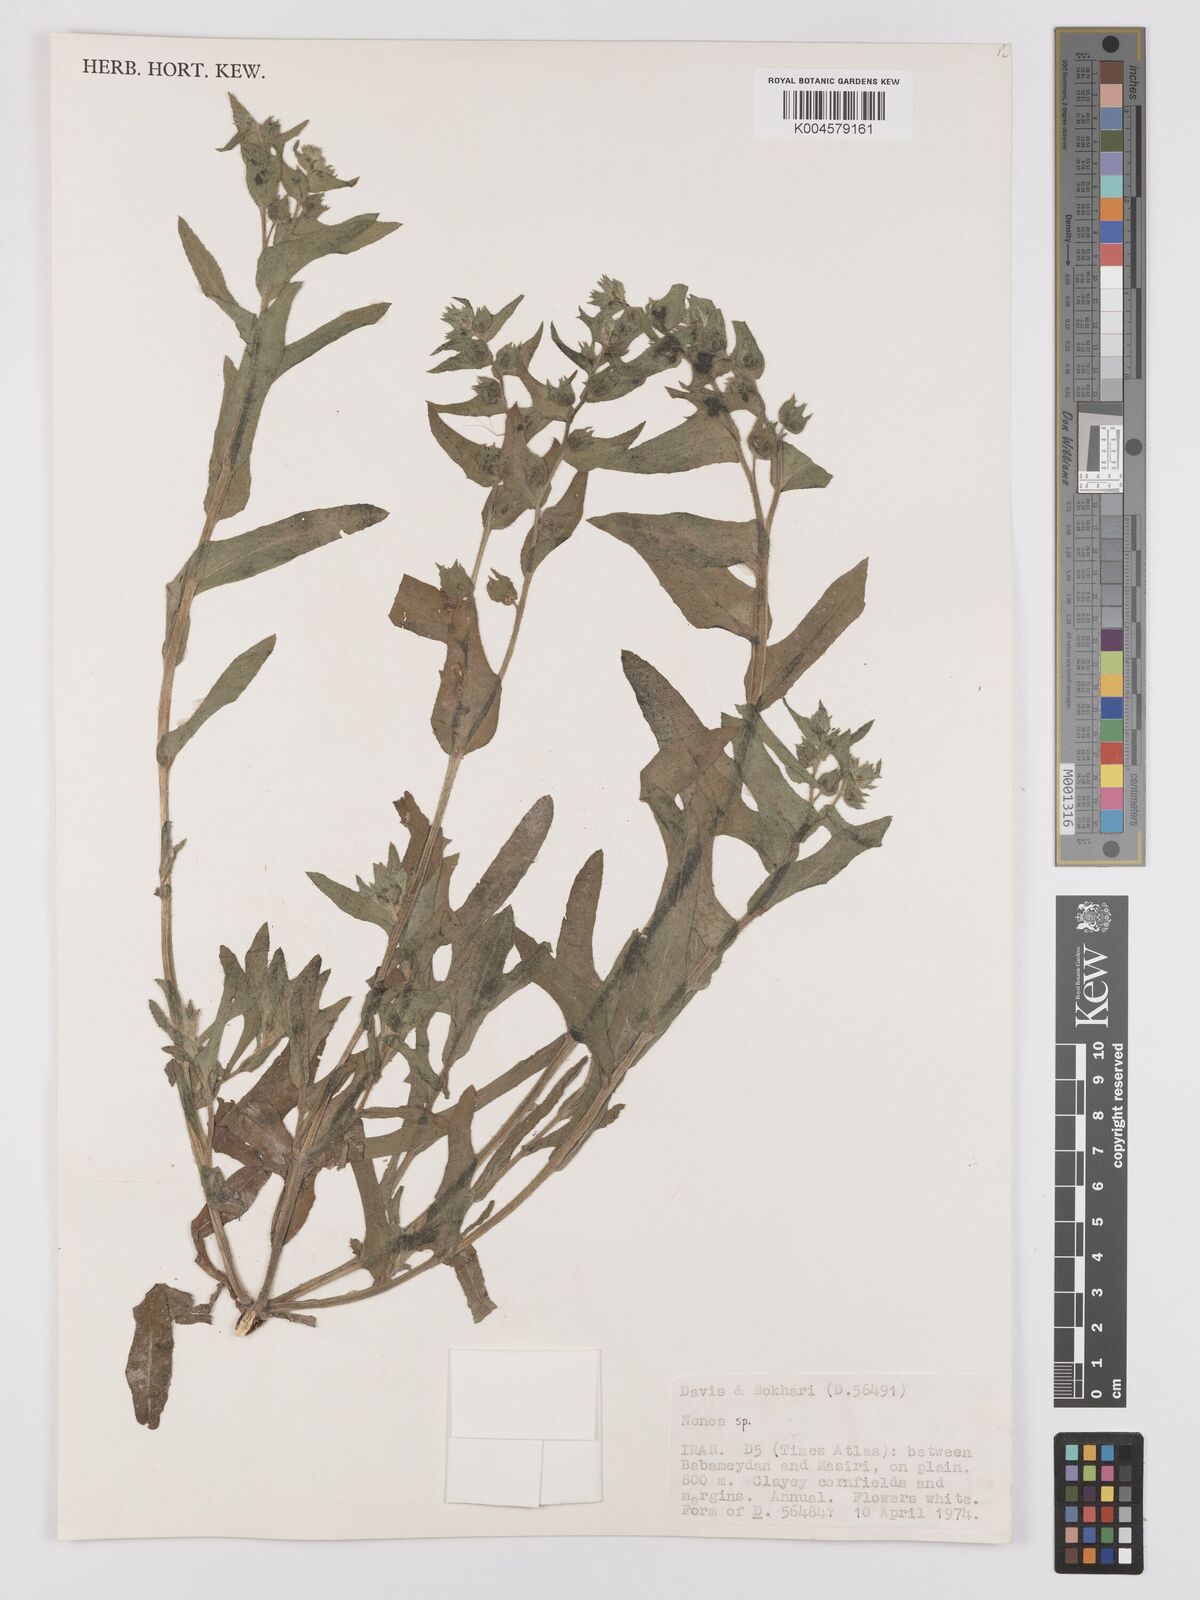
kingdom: Plantae
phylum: Tracheophyta
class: Magnoliopsida
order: Boraginales
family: Boraginaceae
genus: Nonea
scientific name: Nonea
